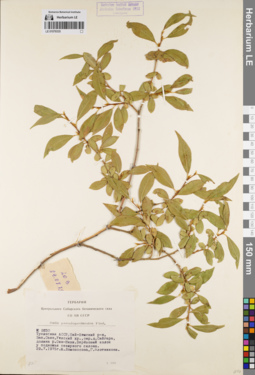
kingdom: Plantae
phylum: Tracheophyta
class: Magnoliopsida
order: Malpighiales
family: Salicaceae
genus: Salix
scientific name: Salix pseudopentandra
